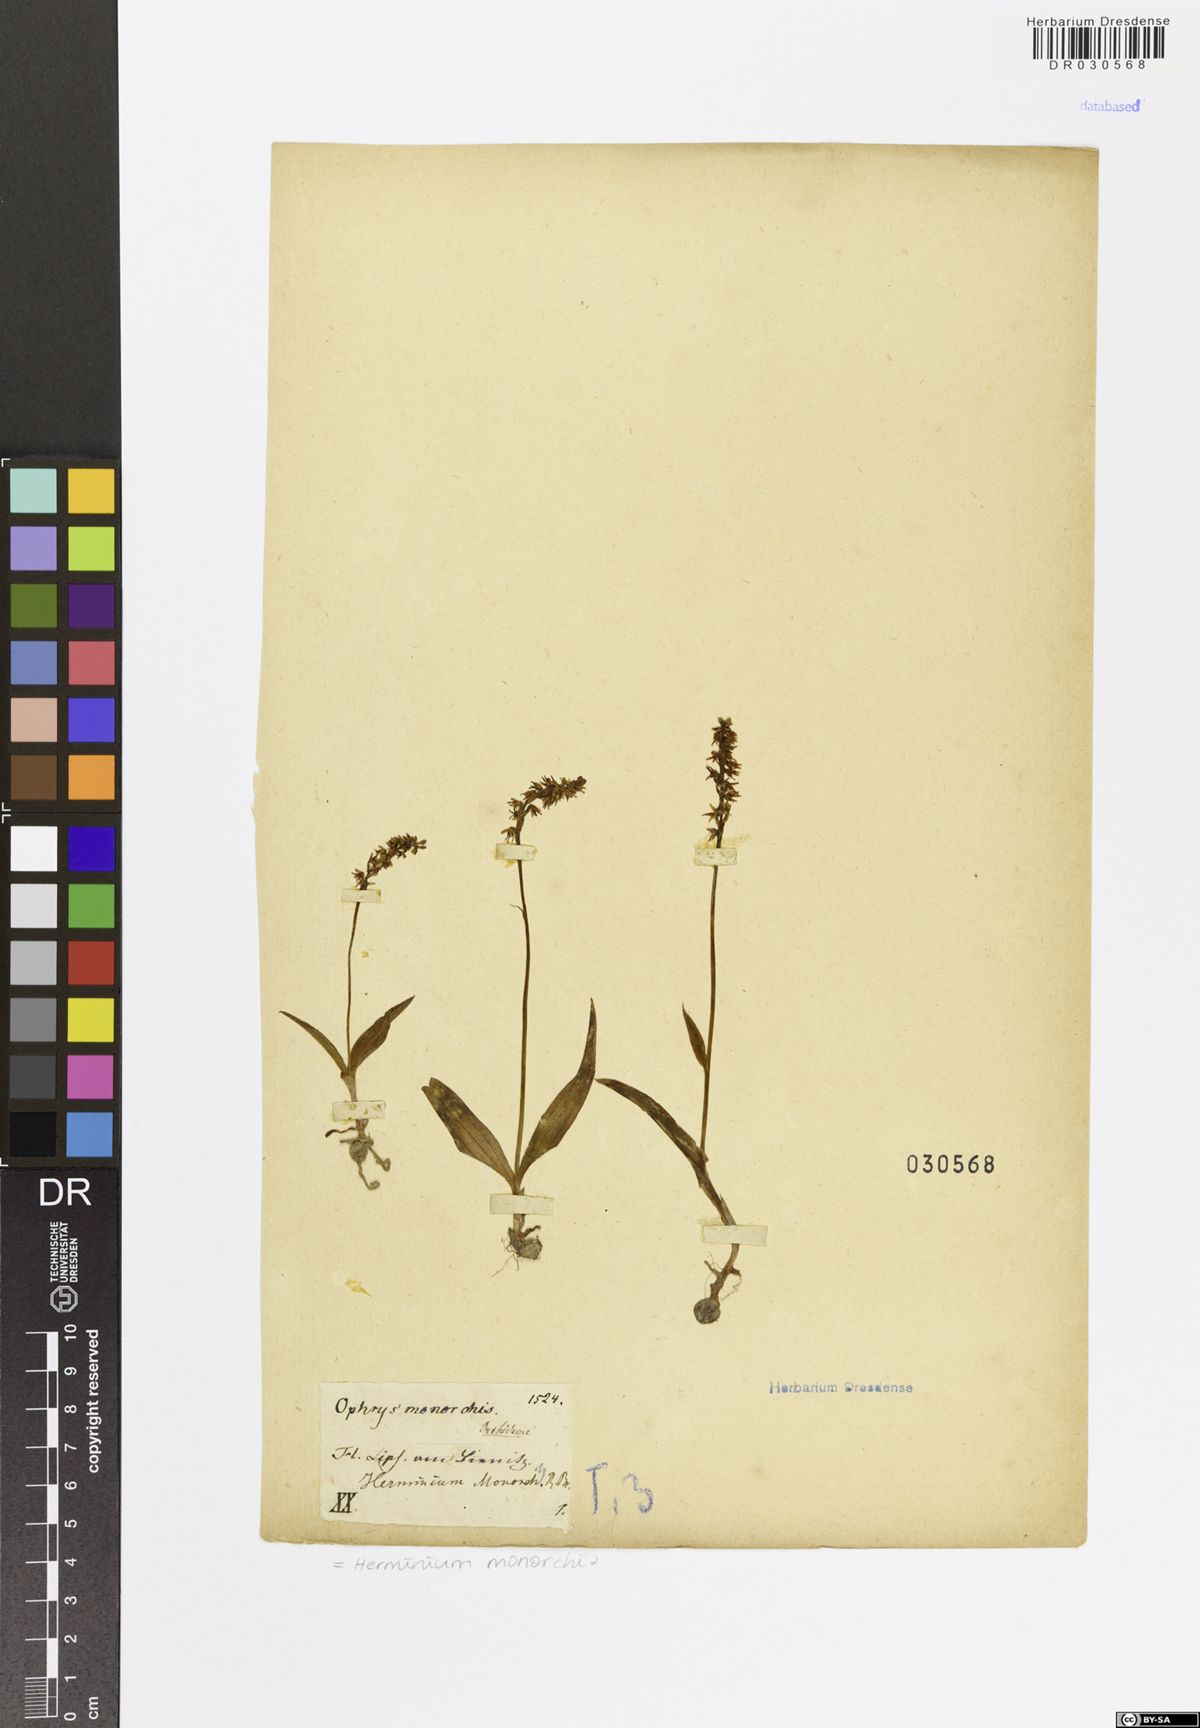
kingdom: Plantae
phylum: Tracheophyta
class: Liliopsida
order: Asparagales
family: Orchidaceae
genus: Herminium
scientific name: Herminium monorchis
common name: Musk orchid
